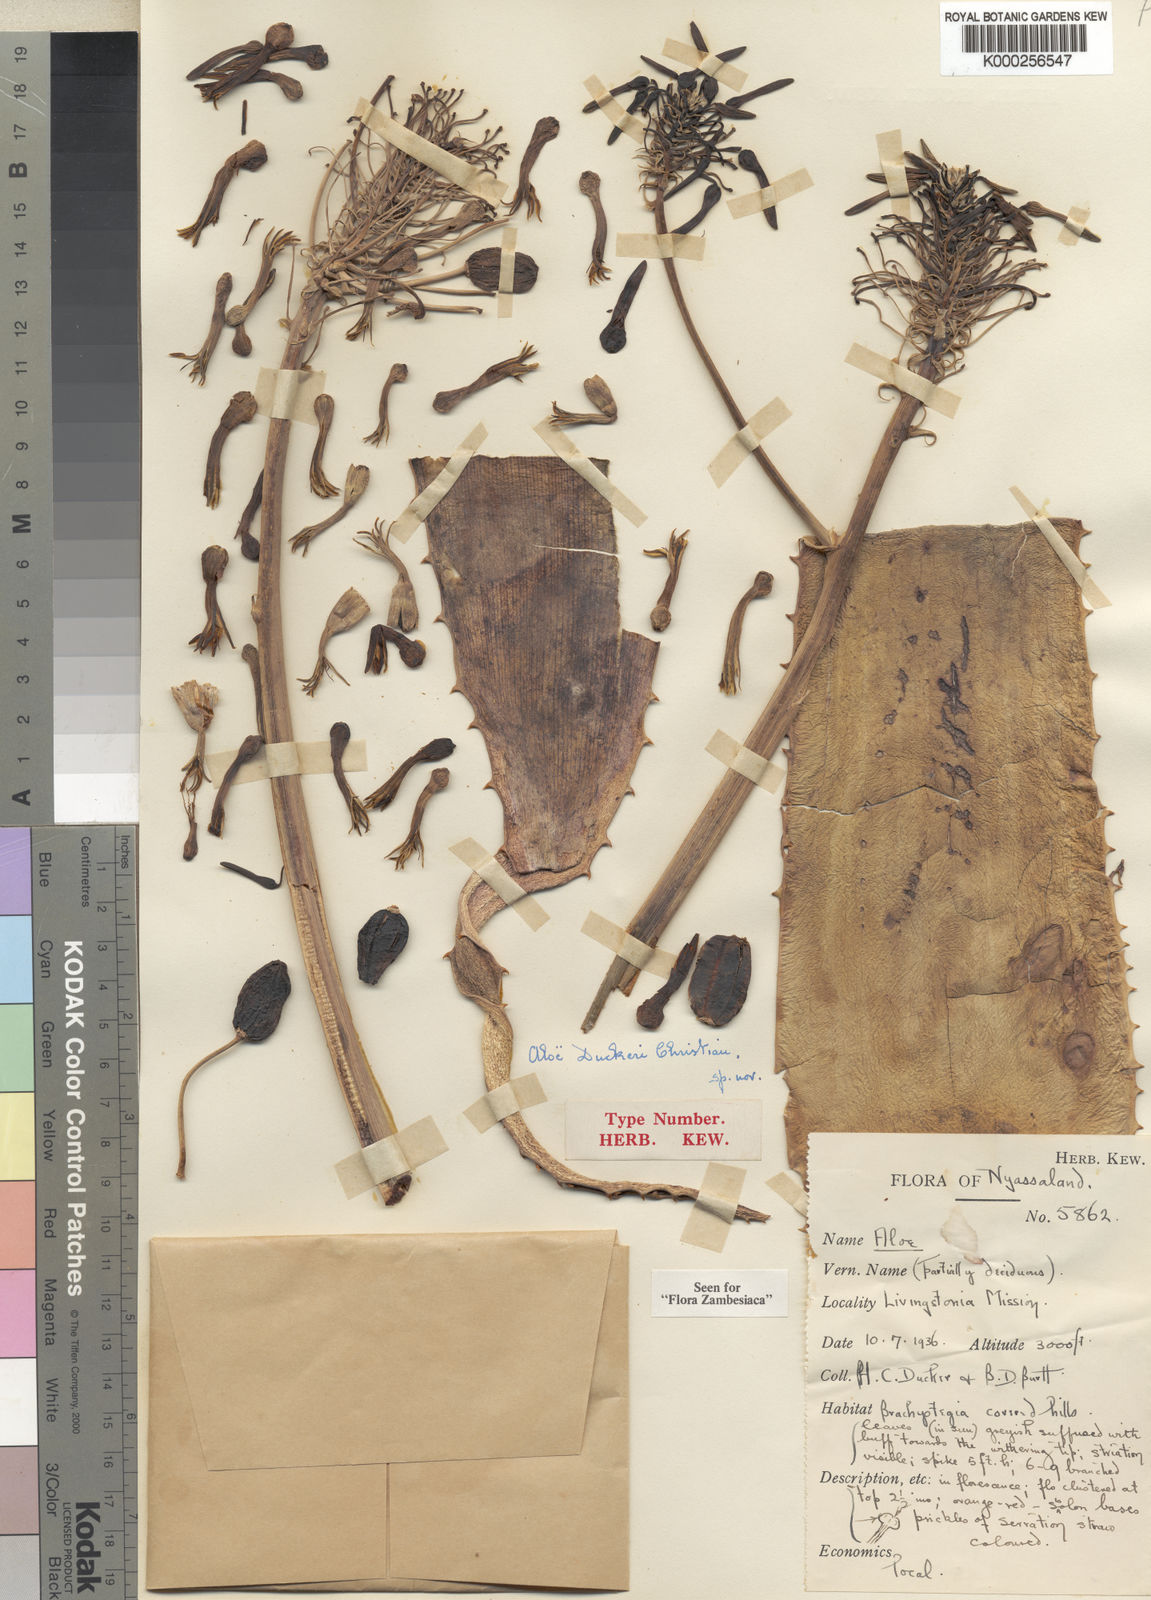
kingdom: Plantae
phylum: Tracheophyta
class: Liliopsida
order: Asparagales
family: Asphodelaceae
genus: Aloe
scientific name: Aloe duckeri
